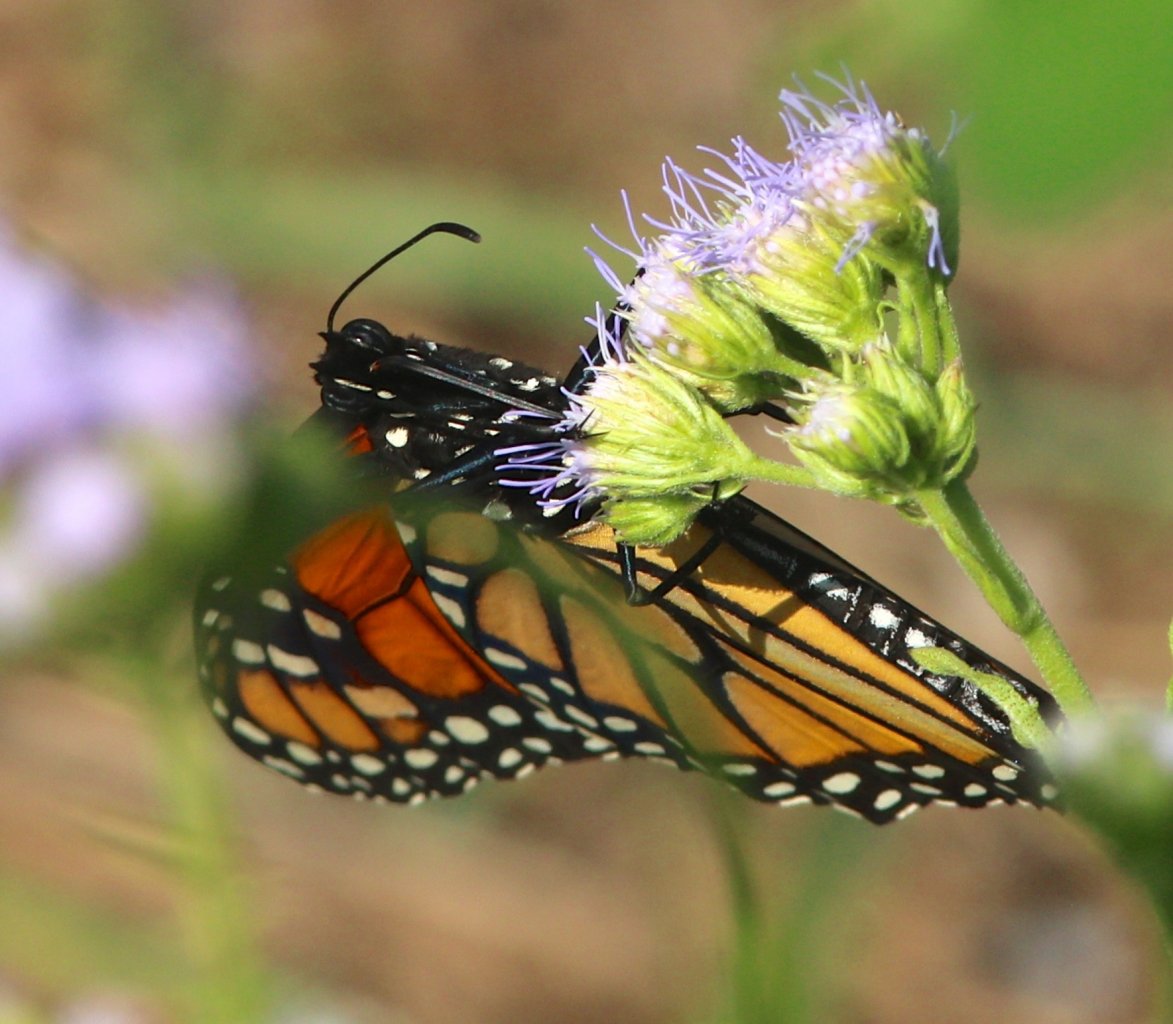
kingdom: Animalia
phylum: Arthropoda
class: Insecta
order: Lepidoptera
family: Nymphalidae
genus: Danaus
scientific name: Danaus plexippus
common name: Monarch
